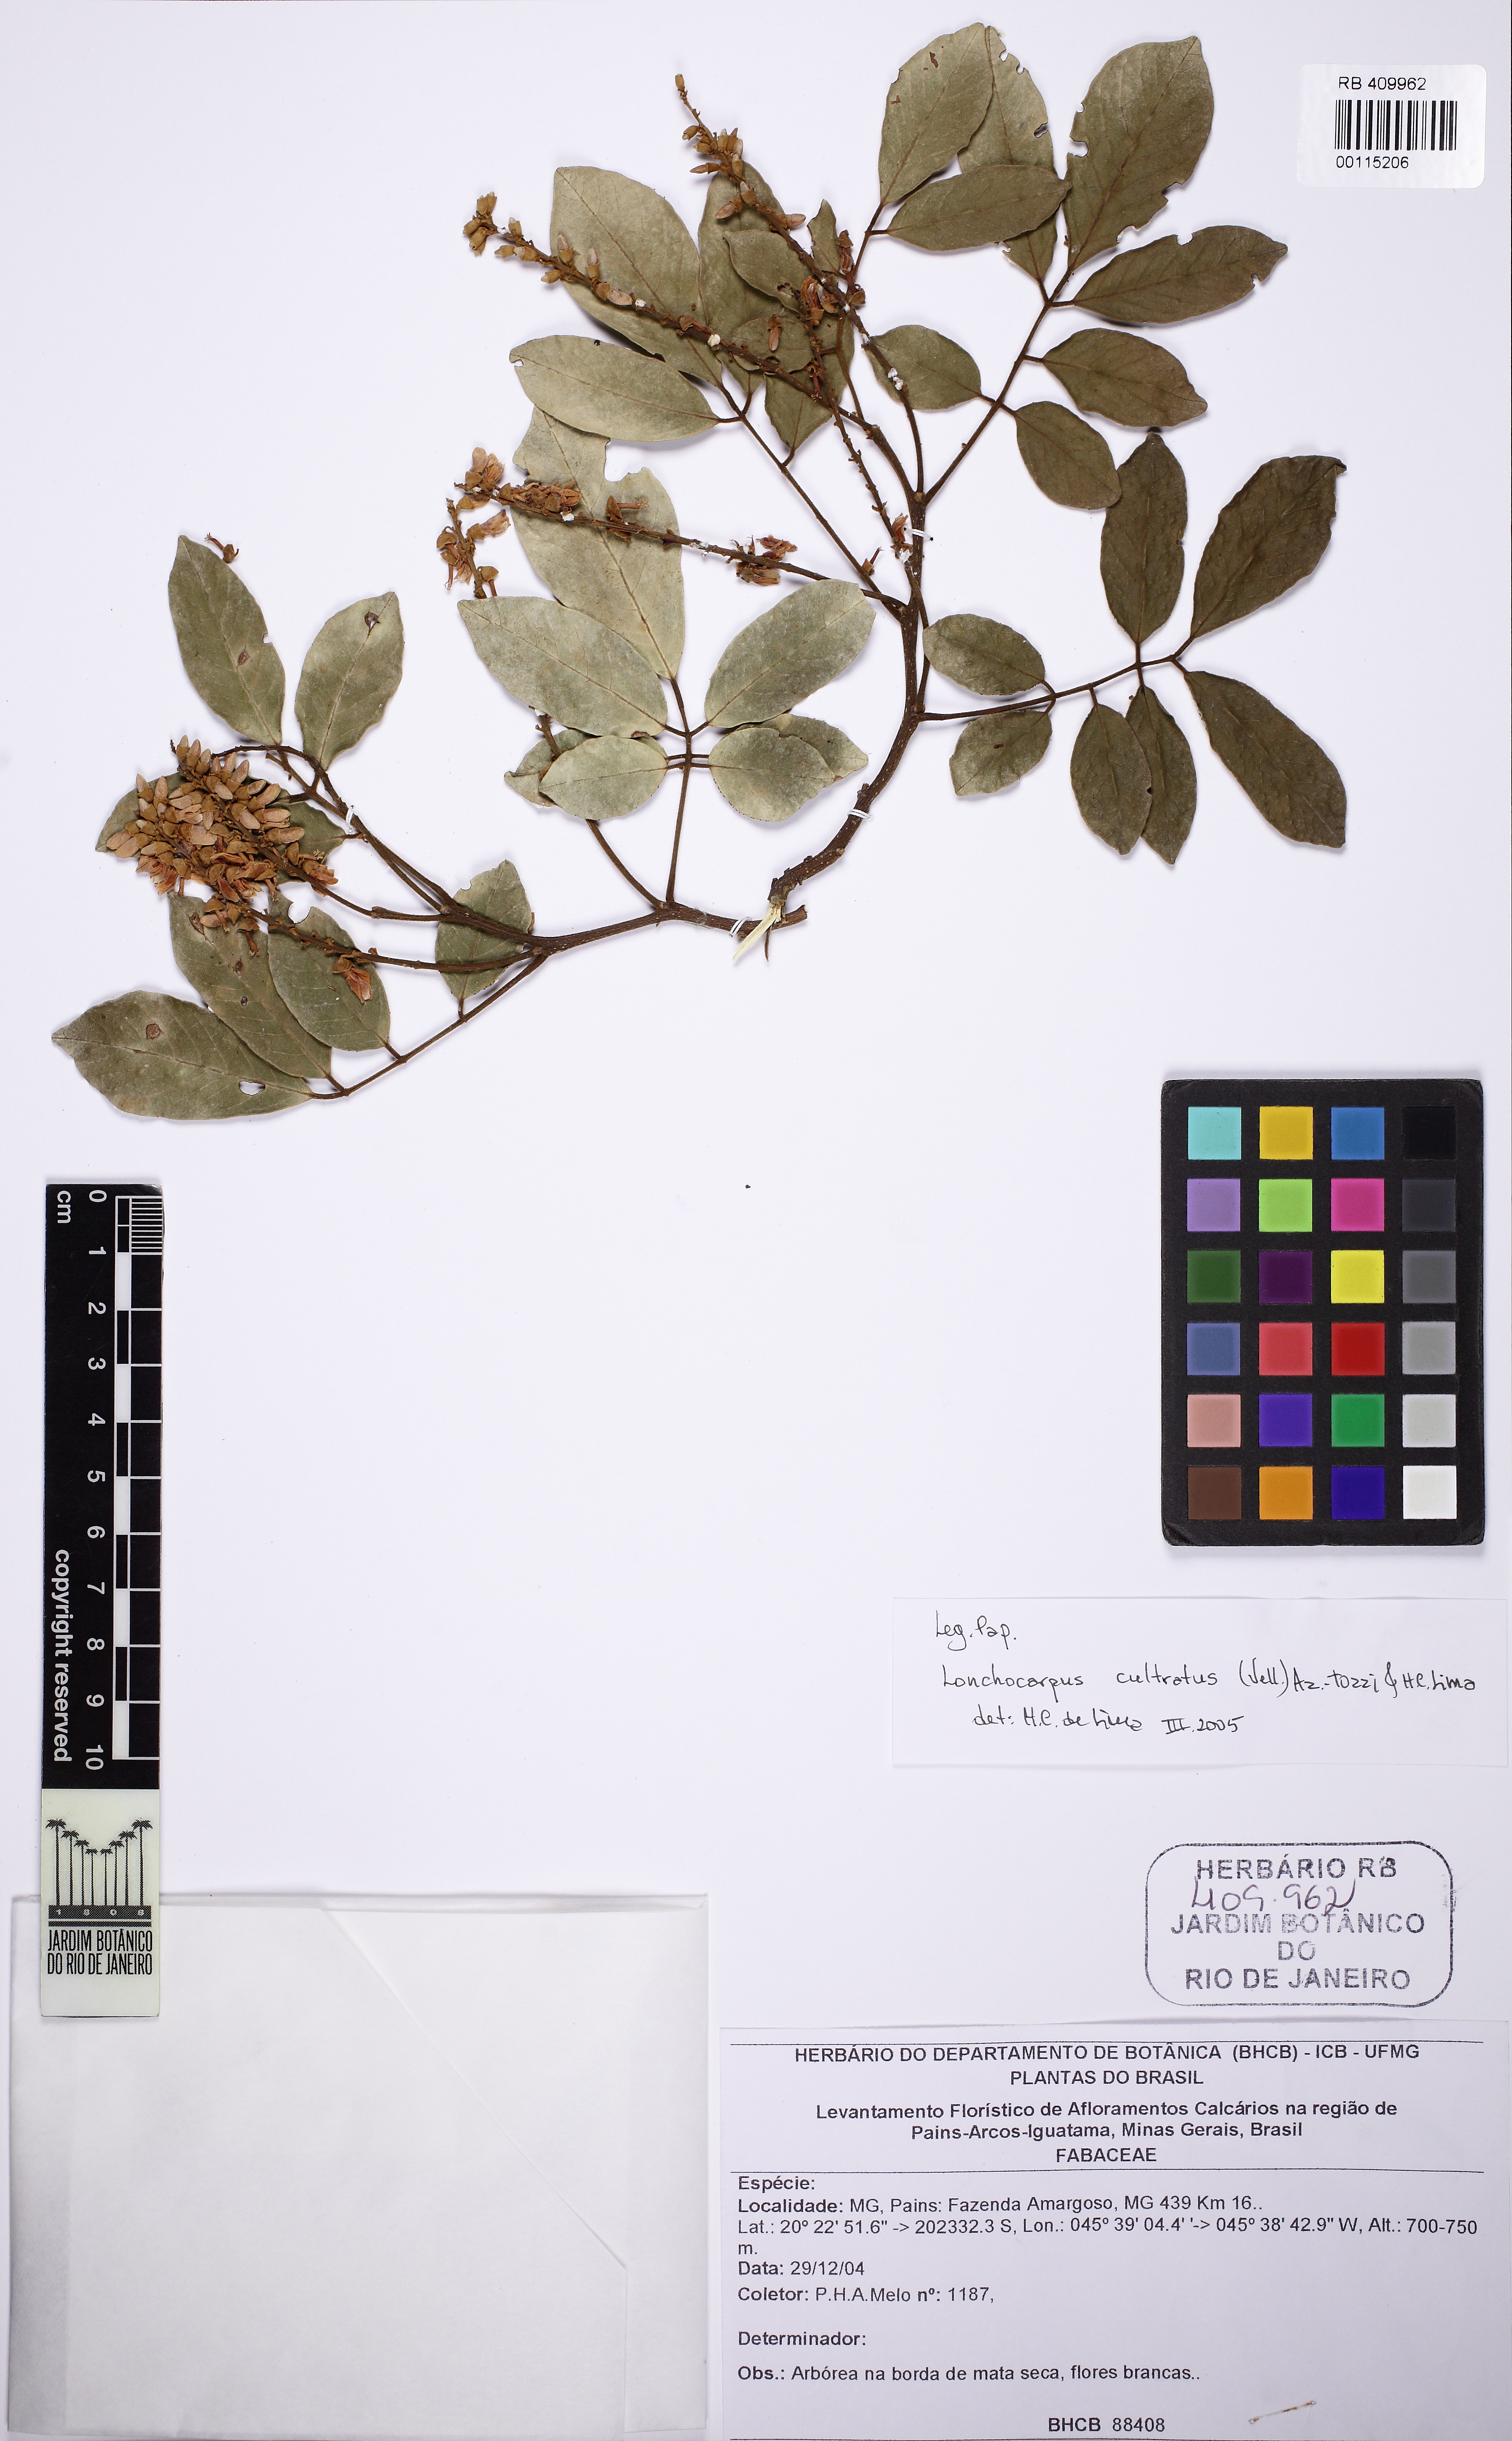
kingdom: Plantae
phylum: Tracheophyta
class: Magnoliopsida
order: Fabales
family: Fabaceae
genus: Lonchocarpus
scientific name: Lonchocarpus cultratus
